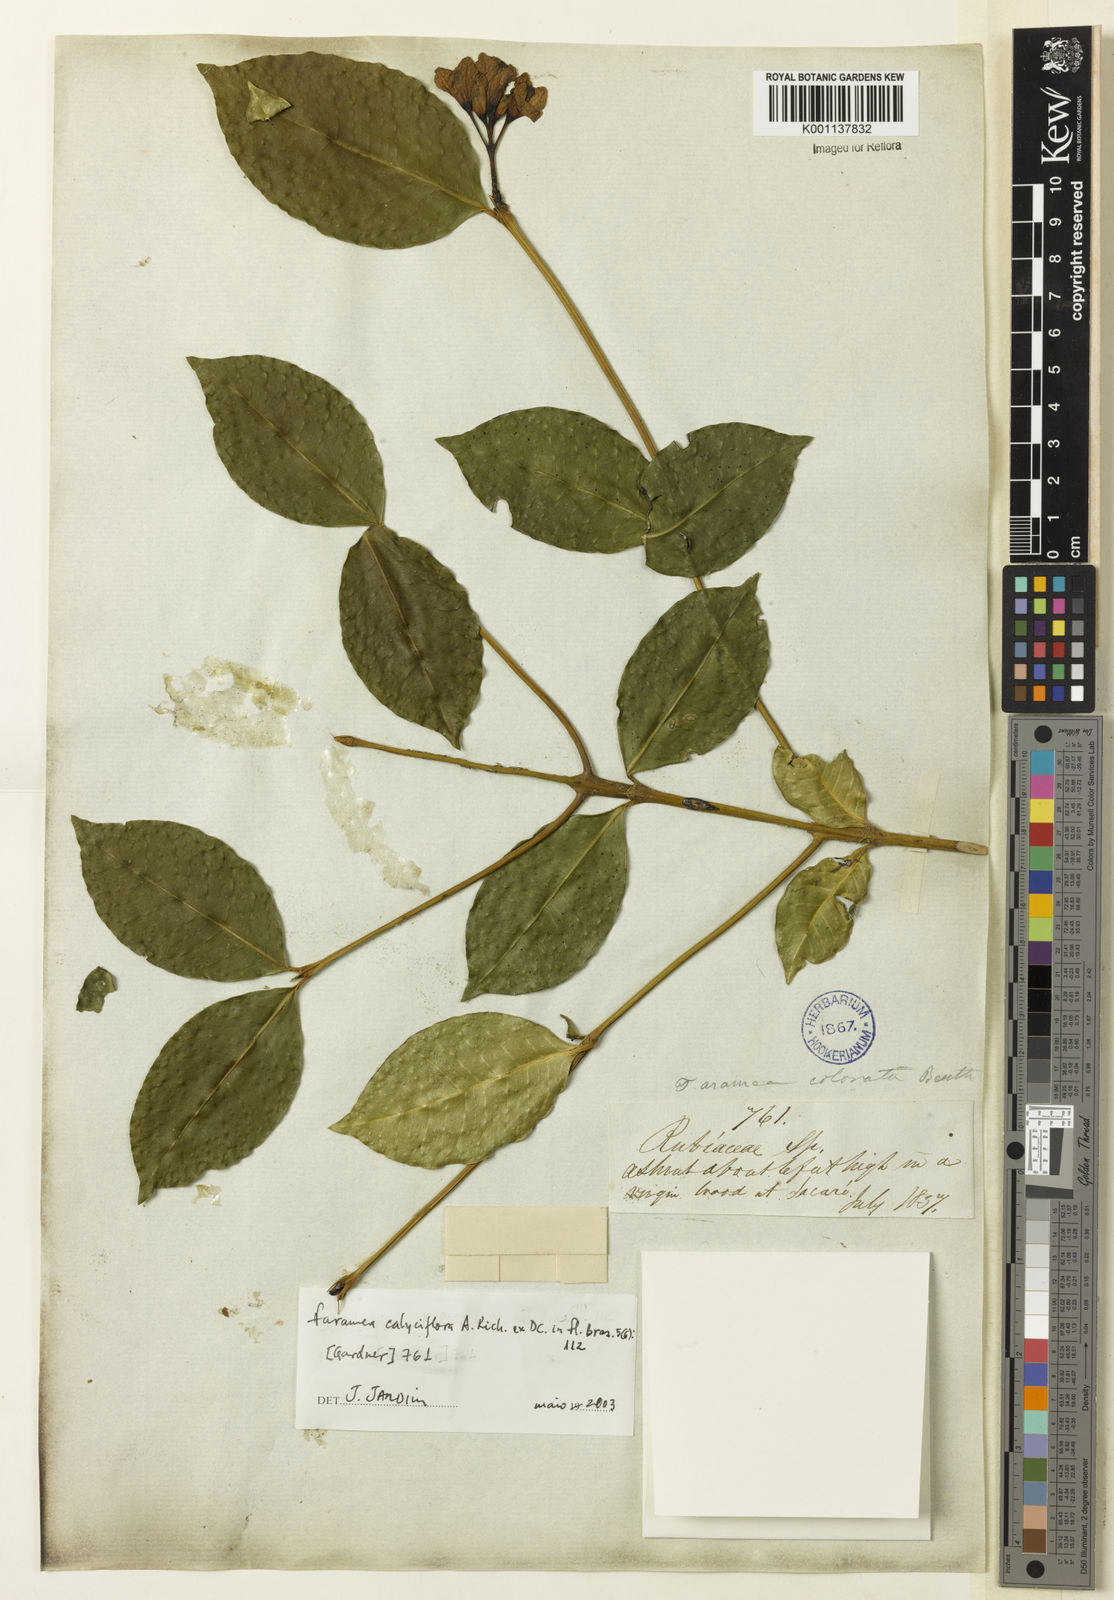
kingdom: Plantae
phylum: Tracheophyta
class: Magnoliopsida
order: Gentianales
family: Rubiaceae
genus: Faramea
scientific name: Faramea calyciflora
